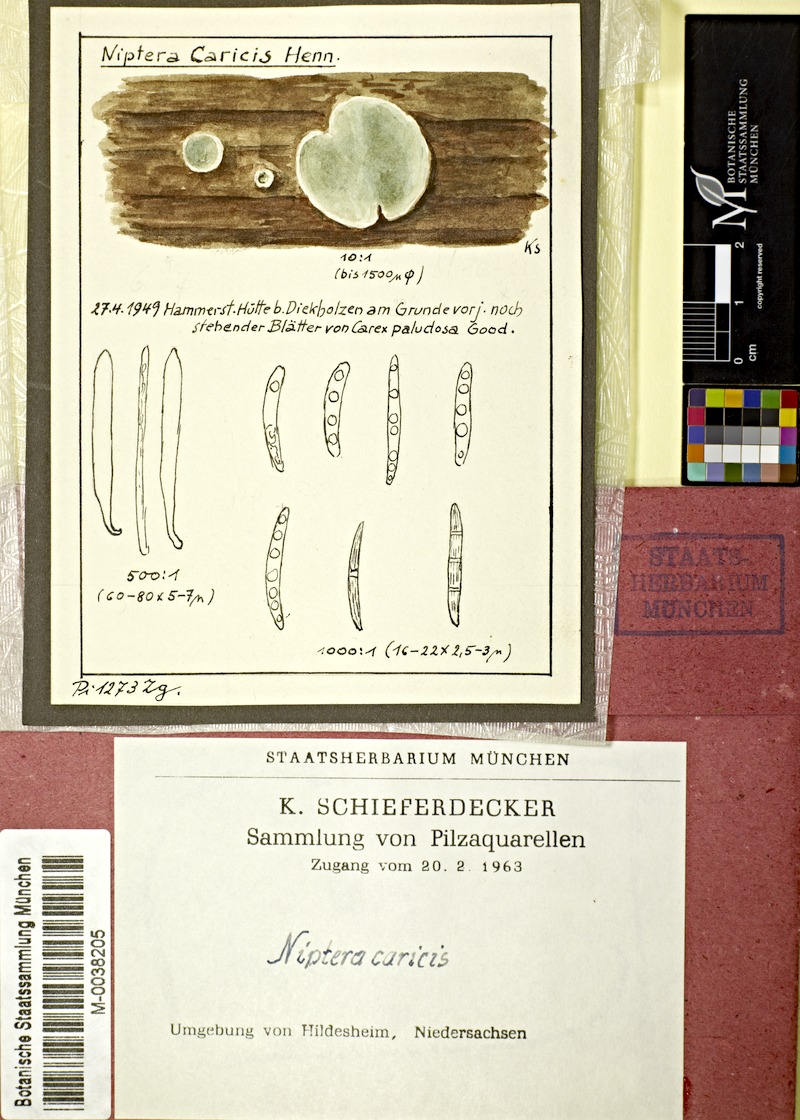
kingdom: Plantae
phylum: Tracheophyta
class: Liliopsida
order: Poales
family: Cyperaceae
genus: Carex
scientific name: Carex acutiformis
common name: Lesser pond-sedge
